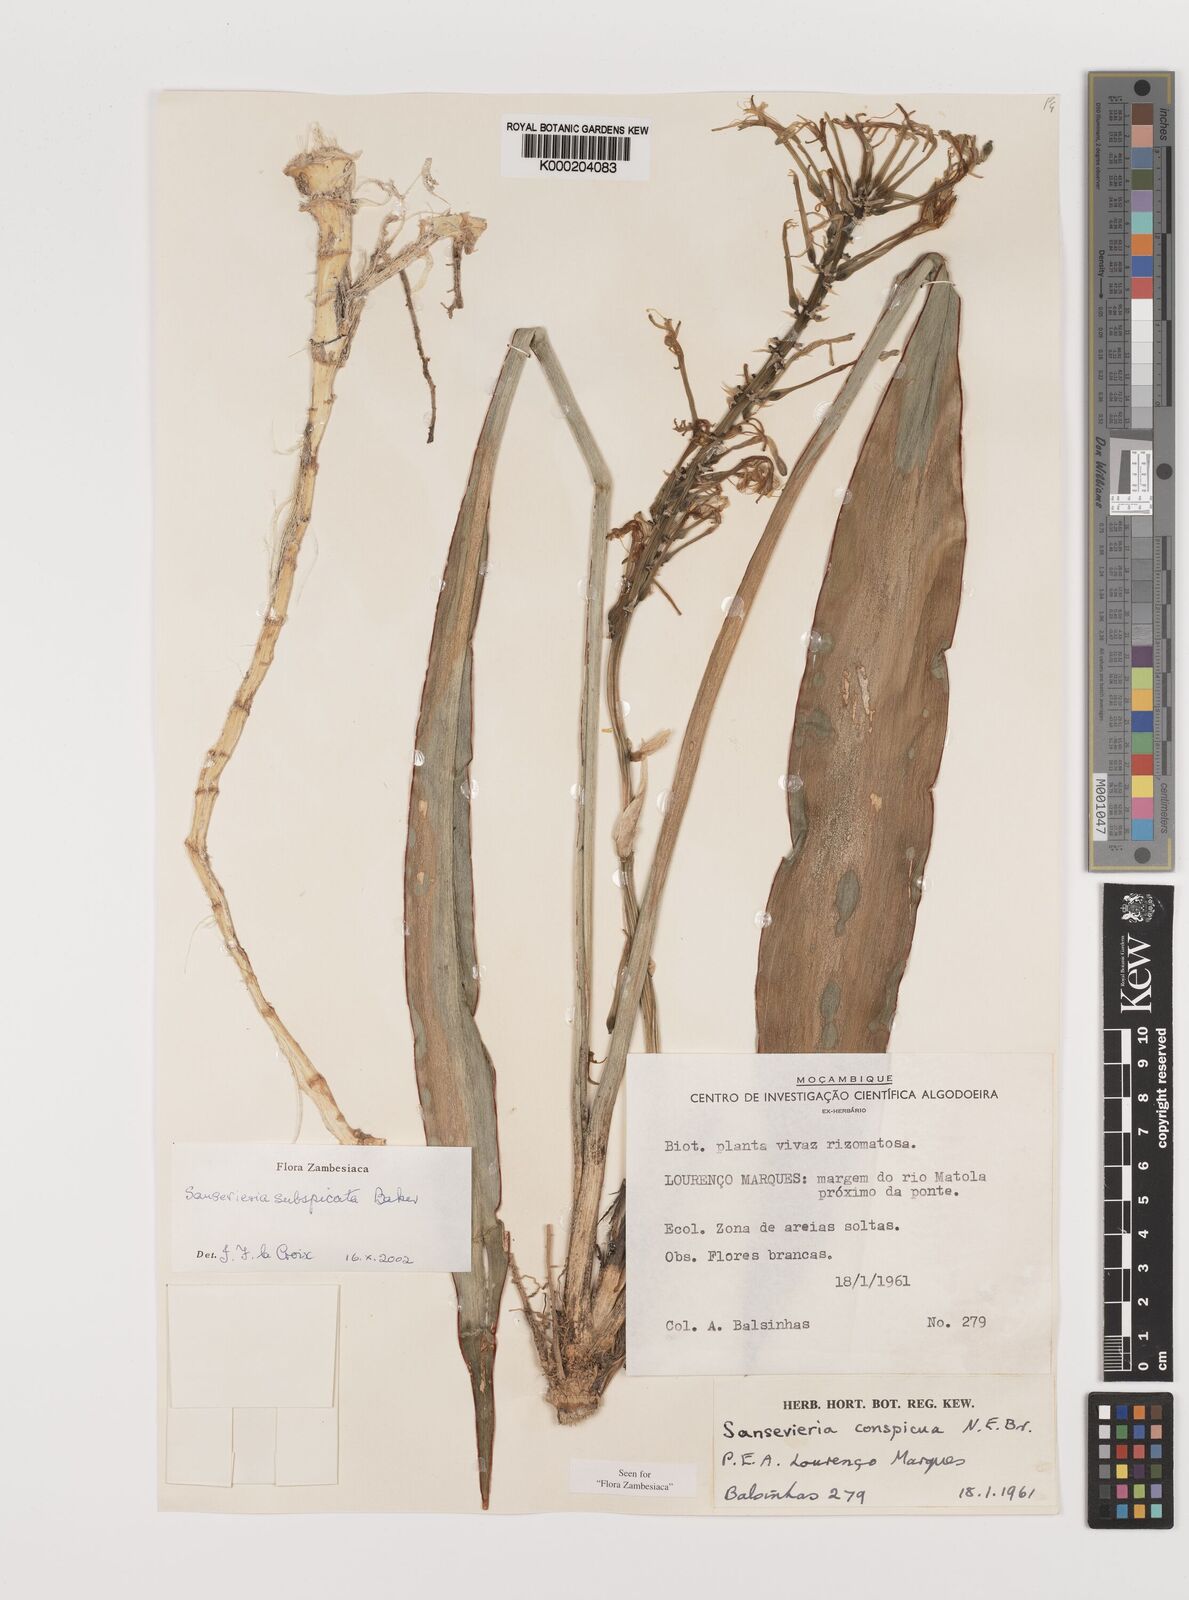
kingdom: Plantae
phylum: Tracheophyta
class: Liliopsida
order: Asparagales
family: Asparagaceae
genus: Dracaena
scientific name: Dracaena subspicata
